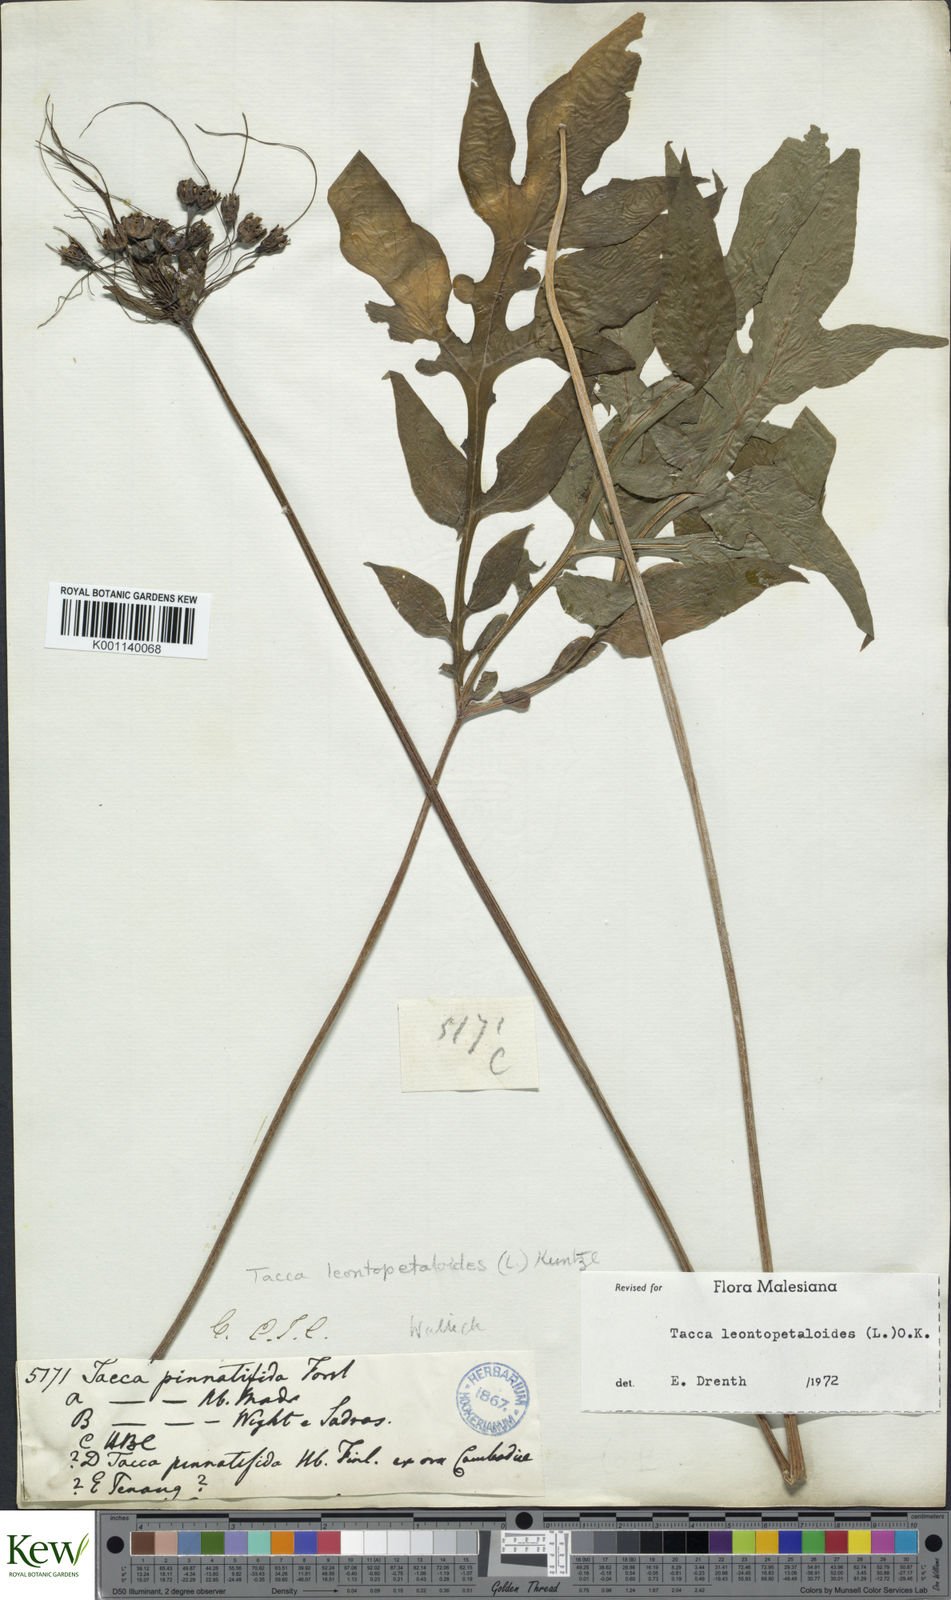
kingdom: Plantae
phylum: Tracheophyta
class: Liliopsida
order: Dioscoreales
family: Dioscoreaceae
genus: Tacca
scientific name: Tacca leontopetaloides
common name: Arrowroot
